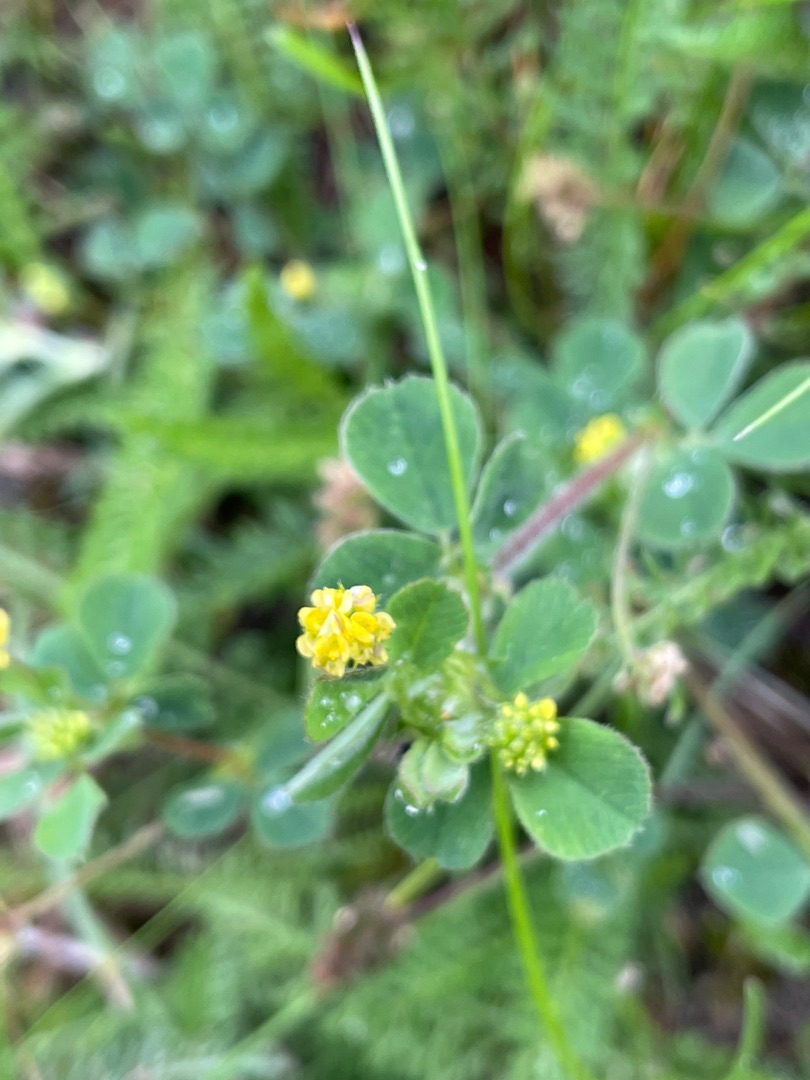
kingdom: Plantae
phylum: Tracheophyta
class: Magnoliopsida
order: Fabales
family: Fabaceae
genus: Medicago
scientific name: Medicago lupulina
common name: Humle-sneglebælg
